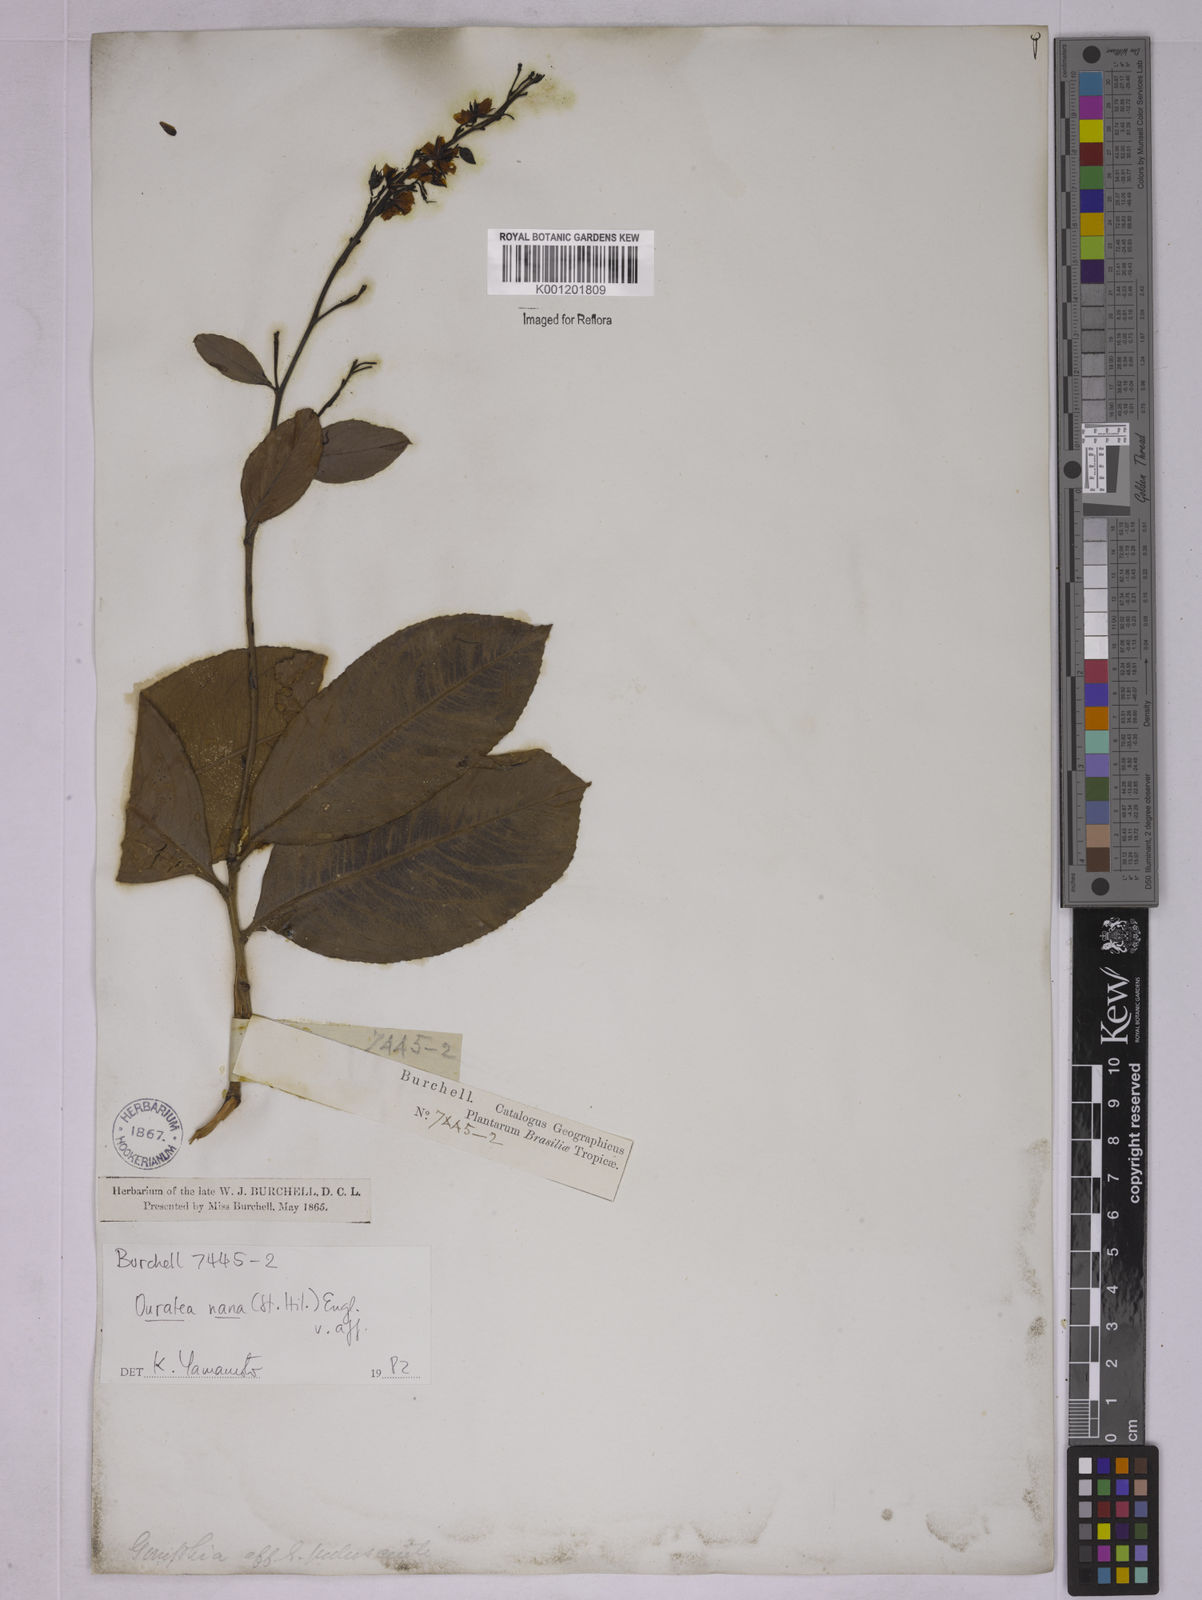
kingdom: Plantae
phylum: Tracheophyta
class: Magnoliopsida
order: Malpighiales
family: Ochnaceae
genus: Ouratea
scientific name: Ouratea nana
